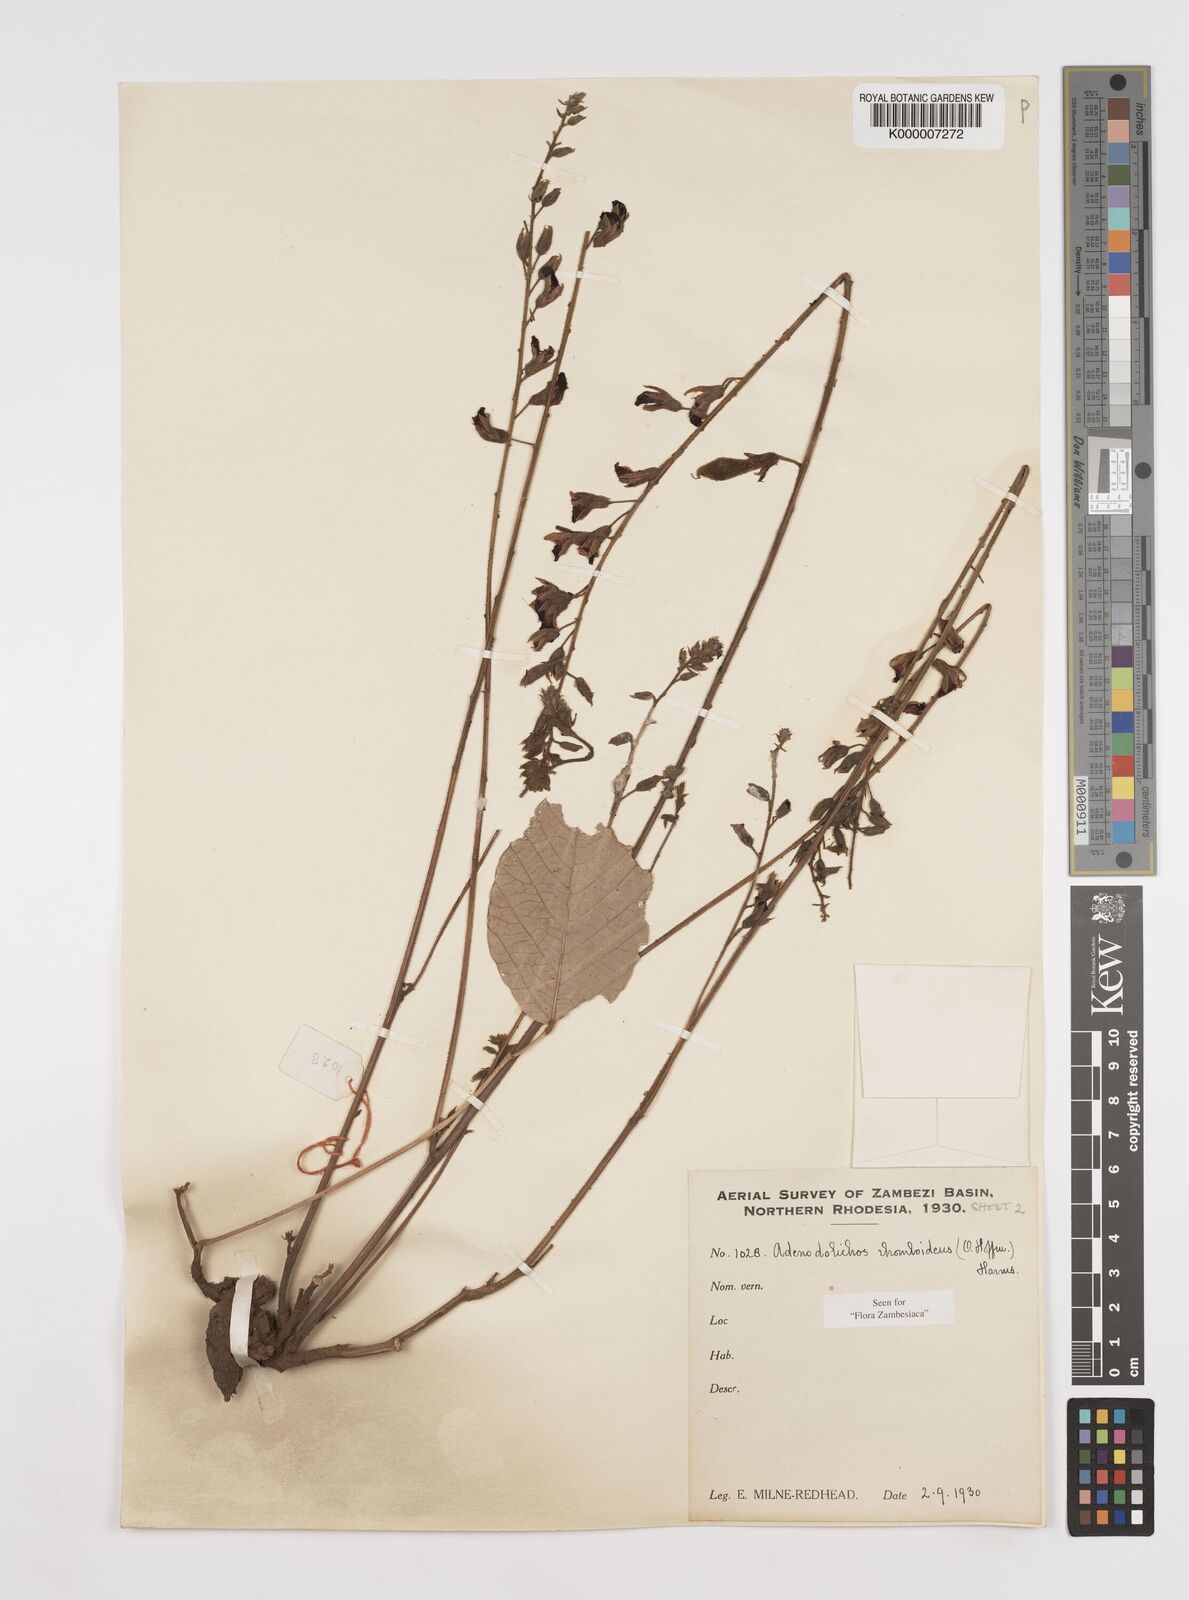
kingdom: Plantae
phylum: Tracheophyta
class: Magnoliopsida
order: Fabales
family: Fabaceae
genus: Adenodolichos
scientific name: Adenodolichos rhomboideus
